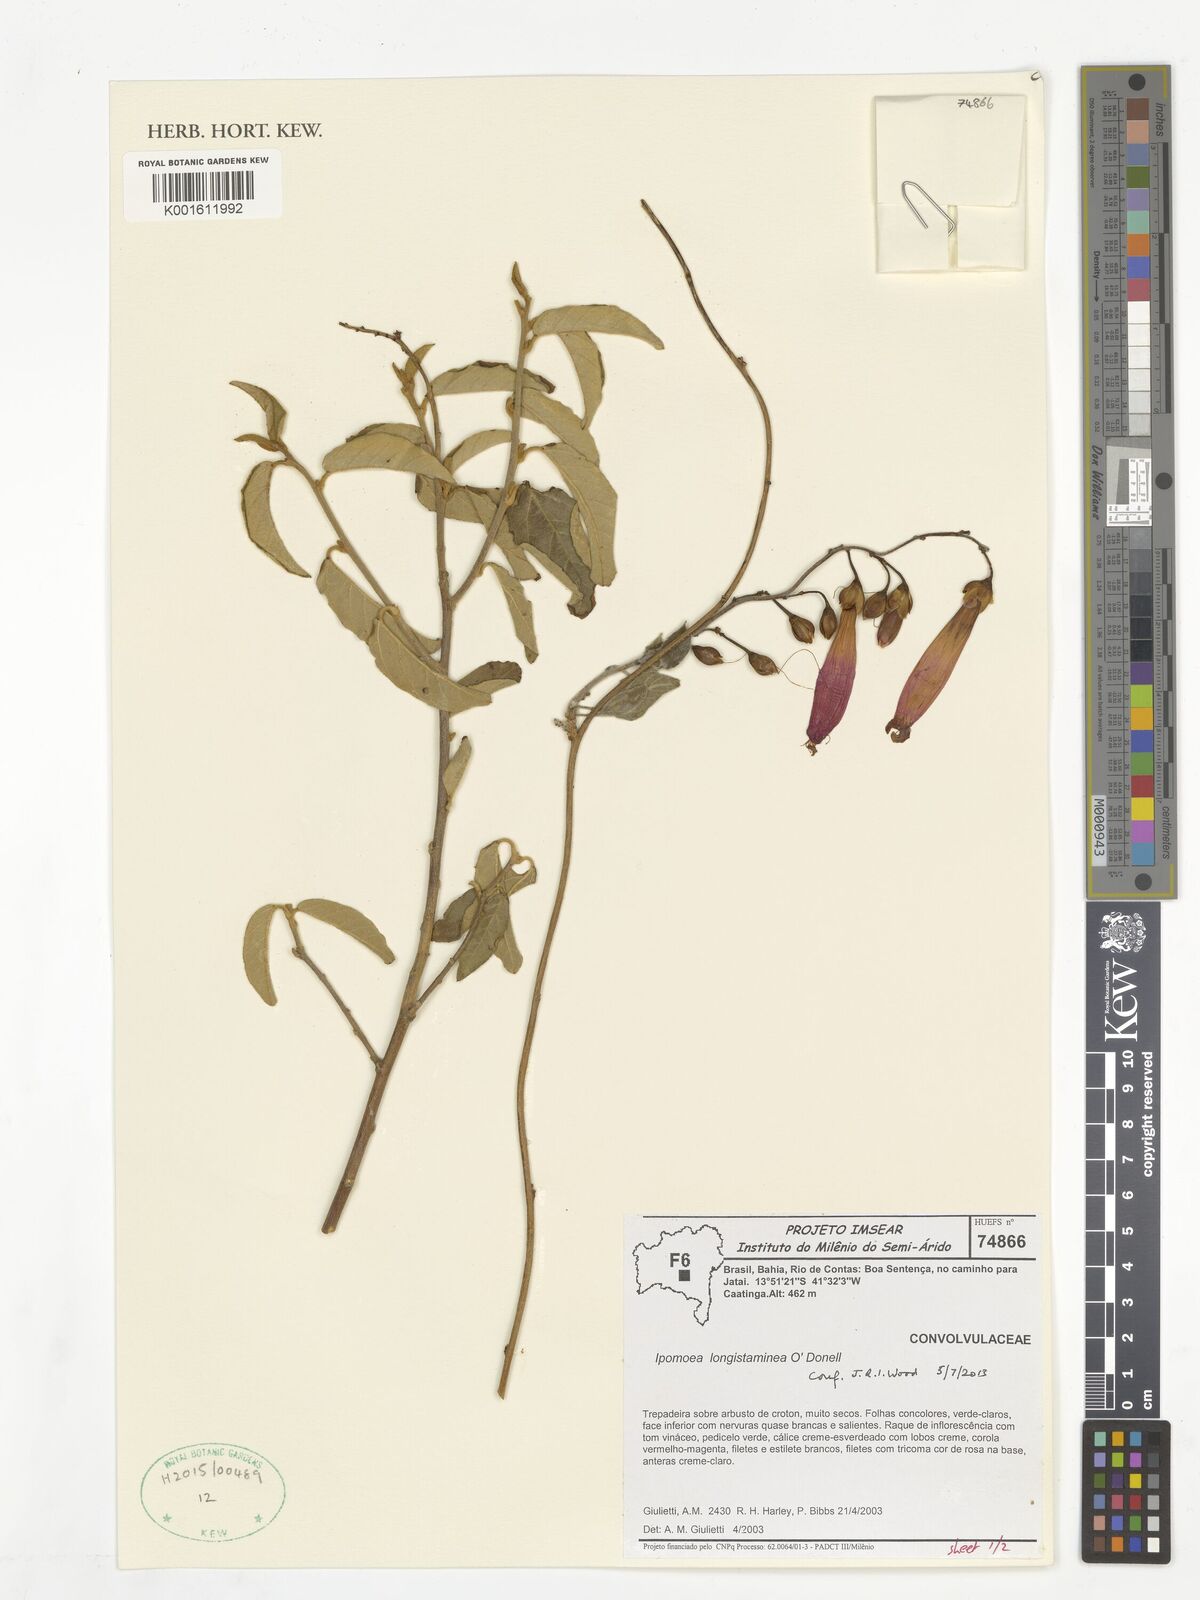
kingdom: Plantae
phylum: Tracheophyta
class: Magnoliopsida
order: Solanales
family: Convolvulaceae
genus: Ipomoea
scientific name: Ipomoea longistaminea
